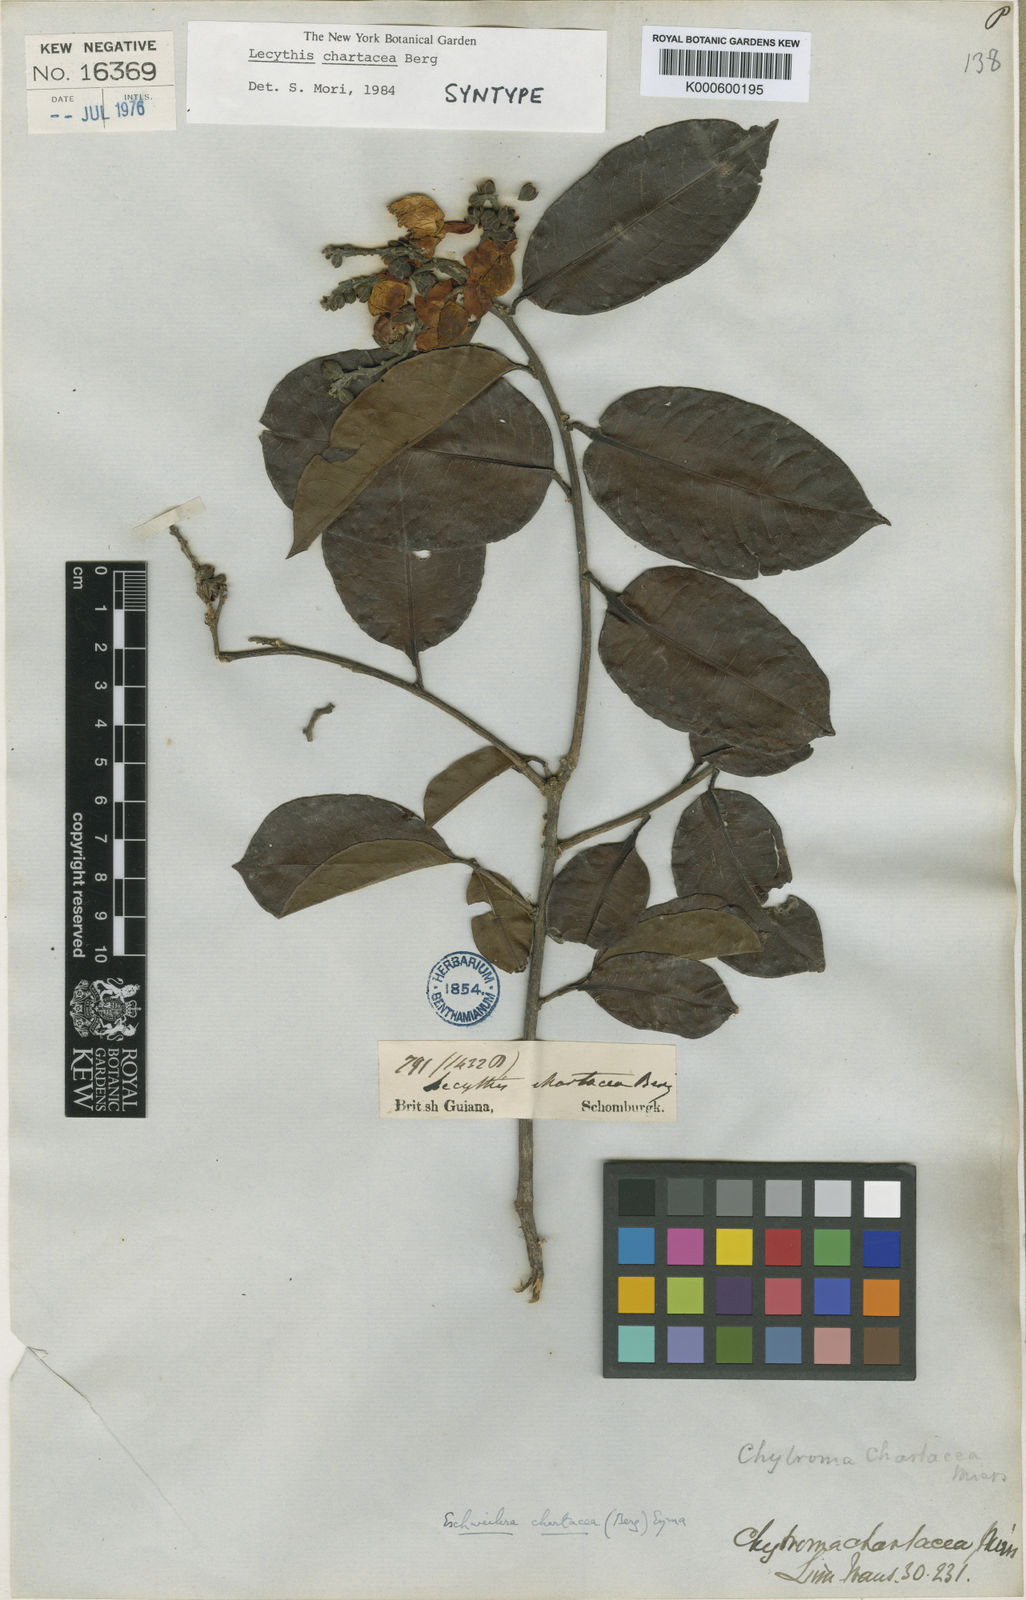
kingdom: Plantae
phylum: Tracheophyta
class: Magnoliopsida
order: Ericales
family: Lecythidaceae
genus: Lecythis
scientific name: Lecythis chartacea
